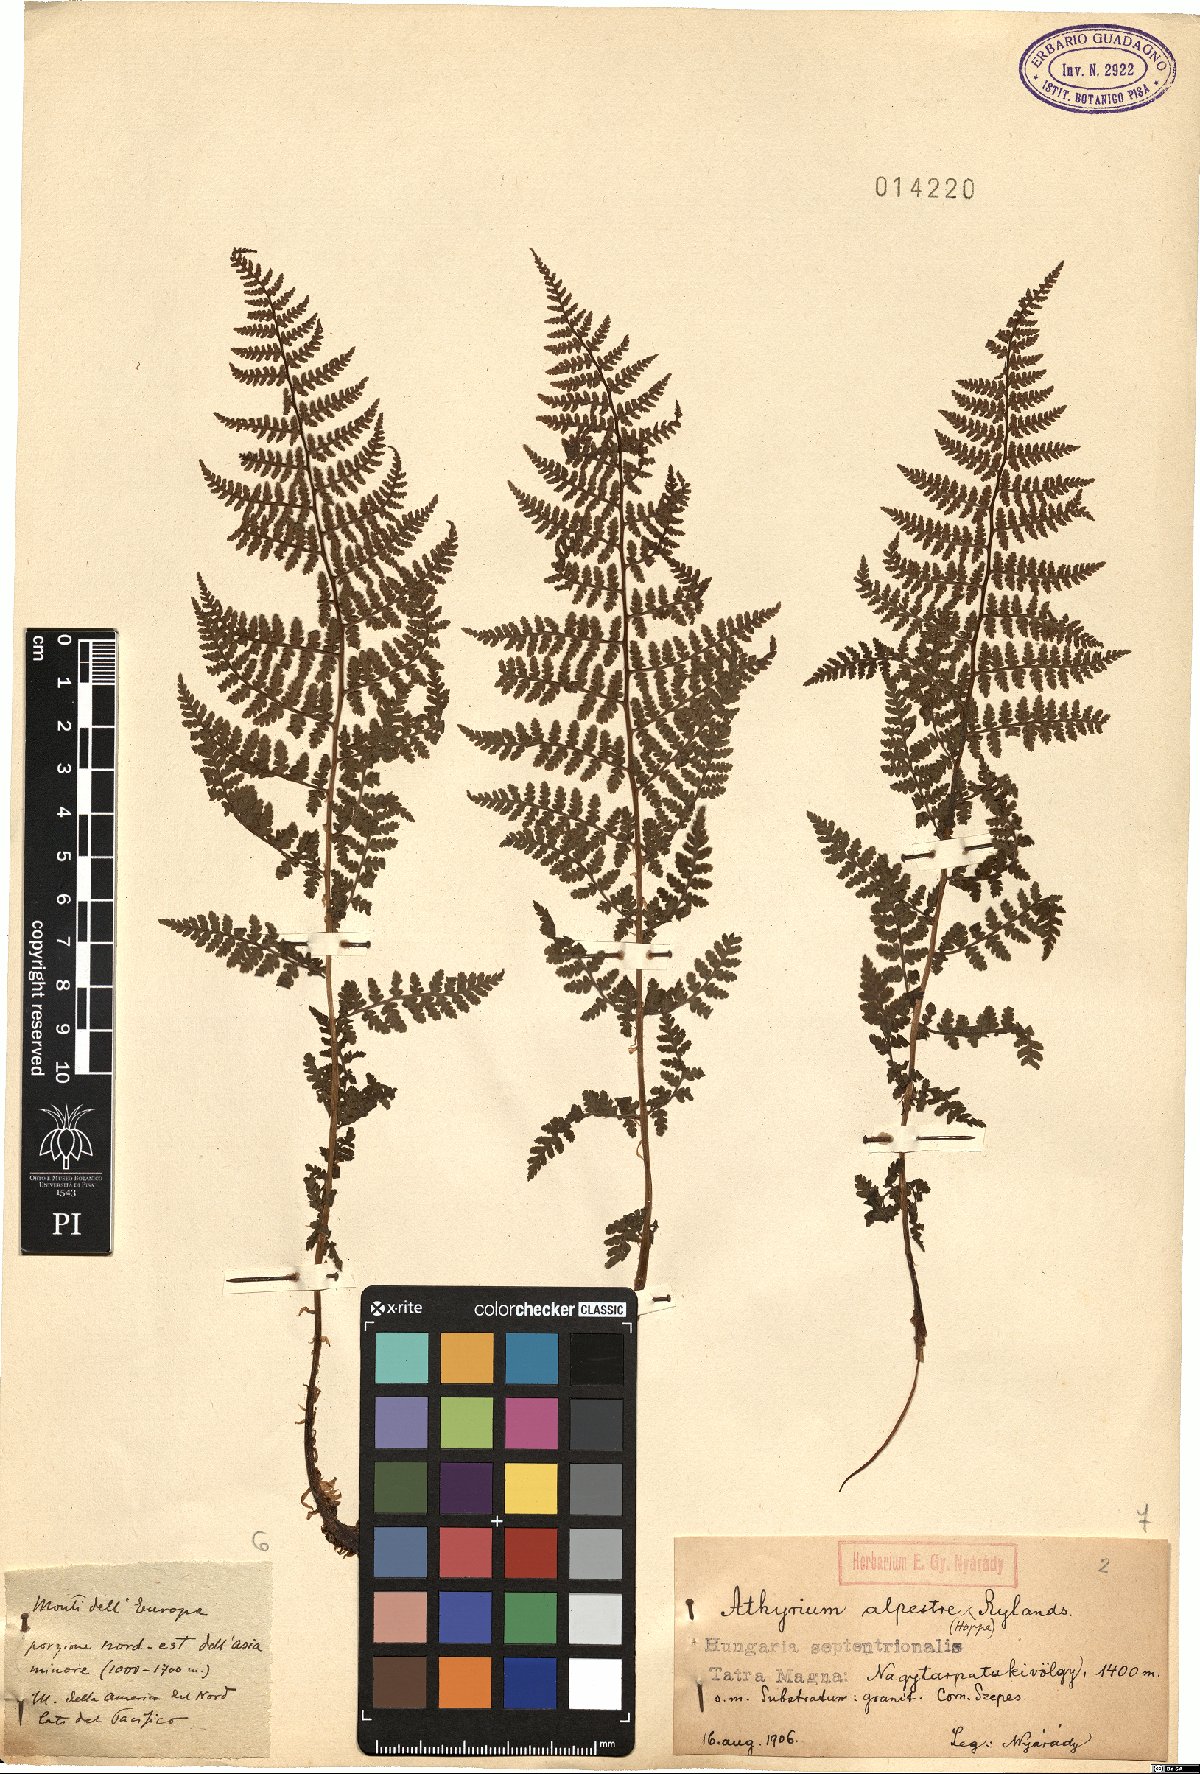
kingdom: Plantae
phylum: Tracheophyta
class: Polypodiopsida
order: Polypodiales
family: Athyriaceae
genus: Pseudathyrium
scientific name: Pseudathyrium alpestre
